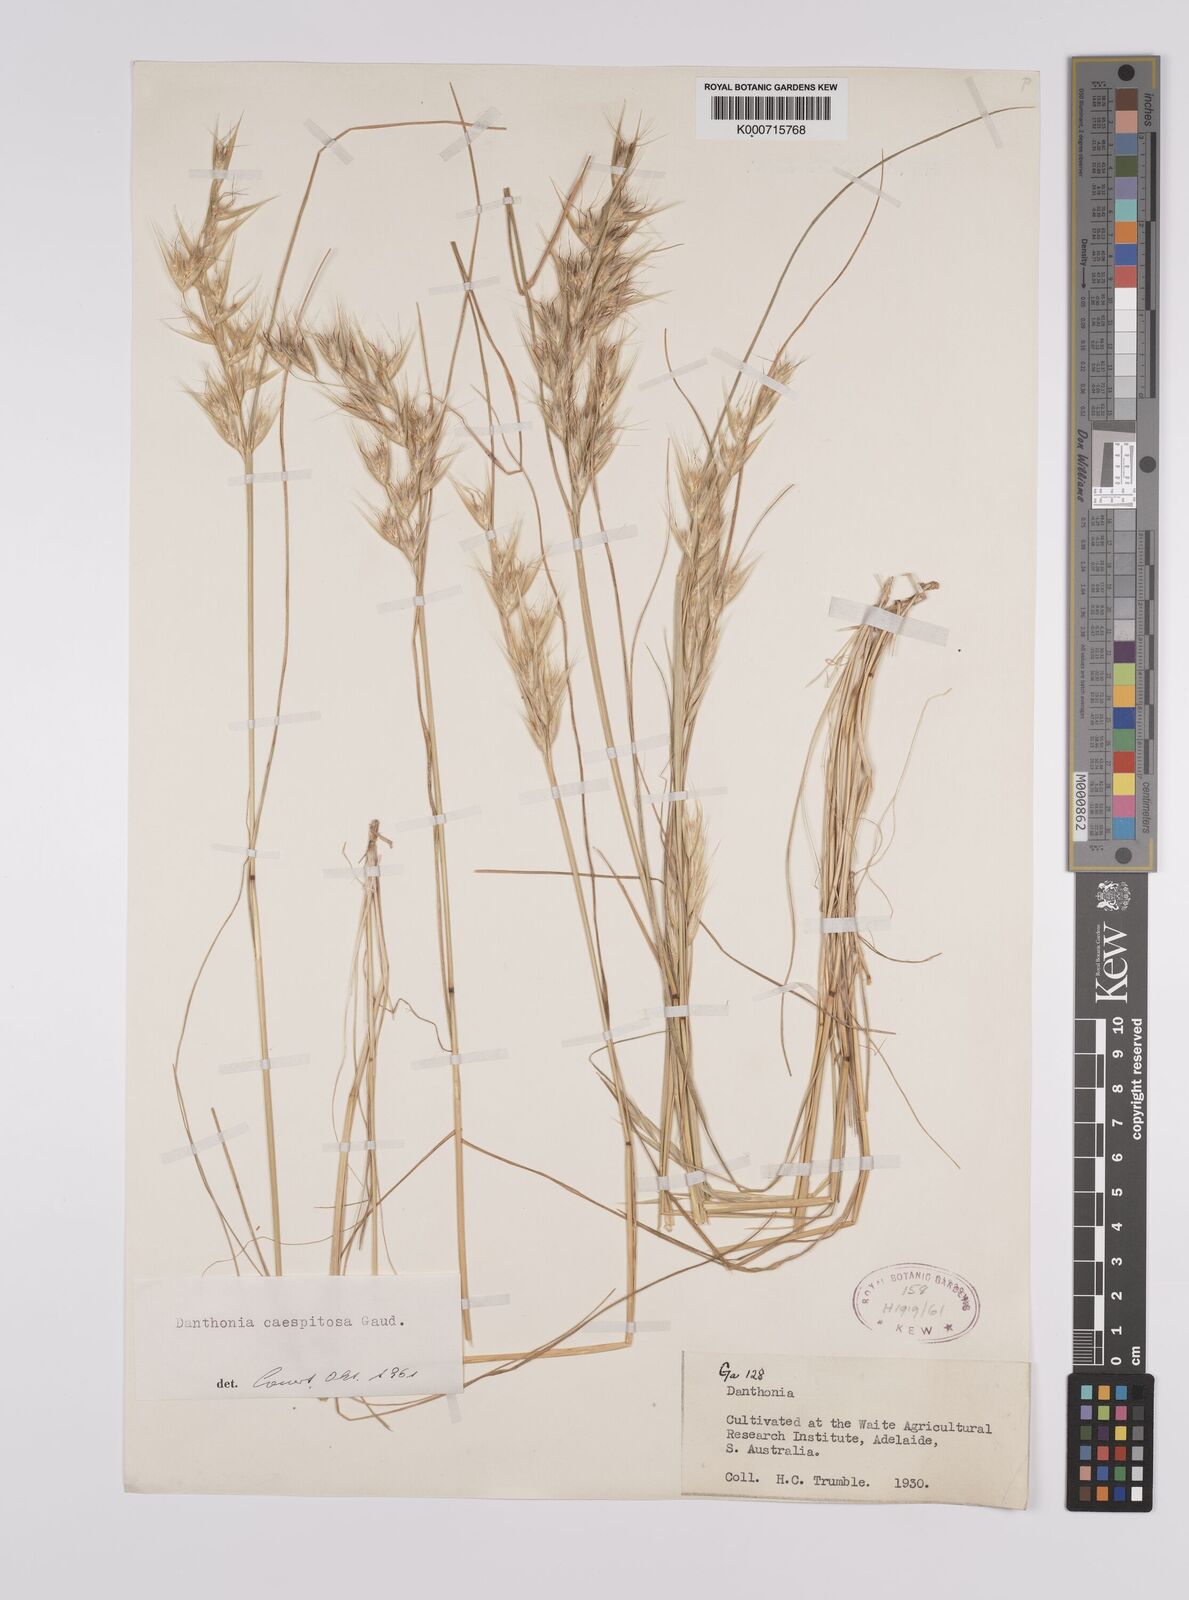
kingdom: Plantae
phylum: Tracheophyta
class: Liliopsida
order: Poales
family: Poaceae
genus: Rytidosperma
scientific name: Rytidosperma caespitosum
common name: Tufted wallaby grass
